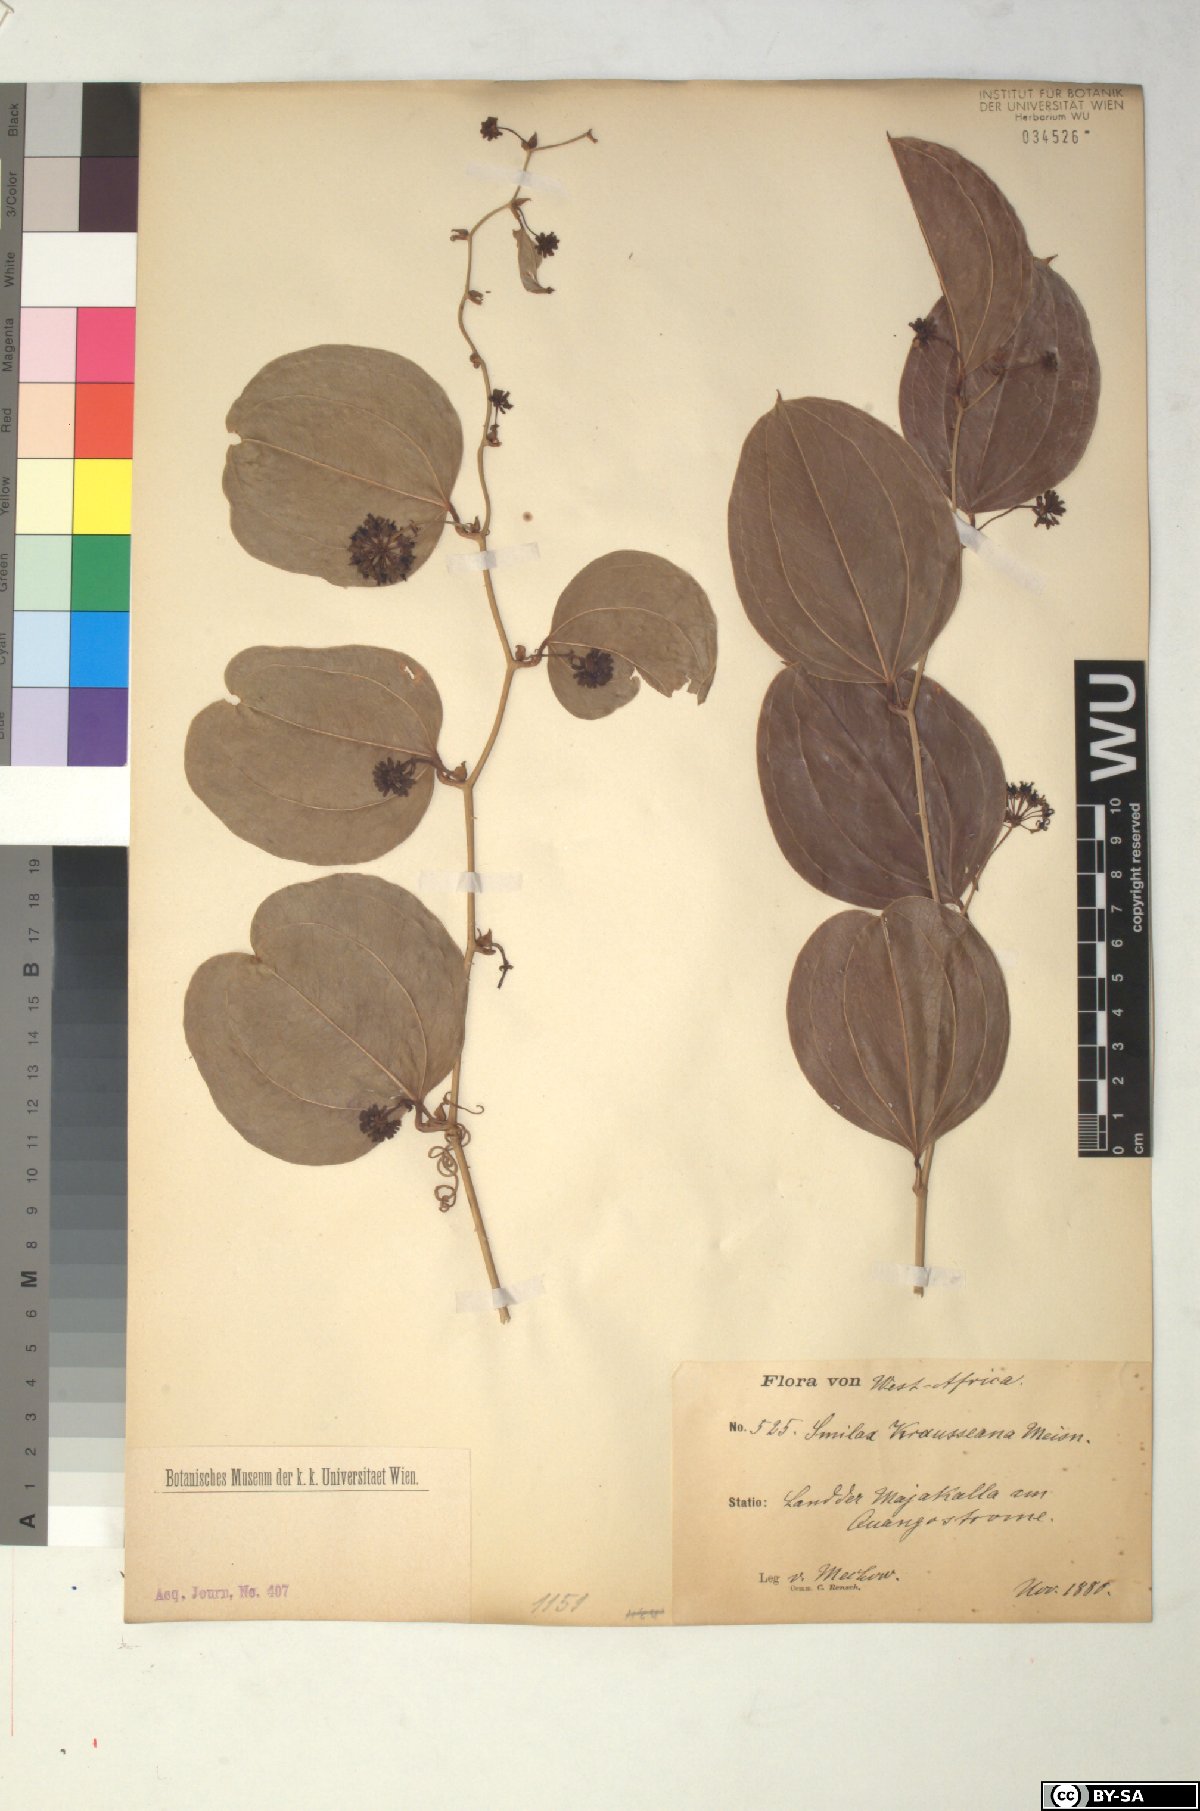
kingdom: Plantae
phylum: Tracheophyta
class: Liliopsida
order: Liliales
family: Smilacaceae
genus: Smilax
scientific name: Smilax anceps
